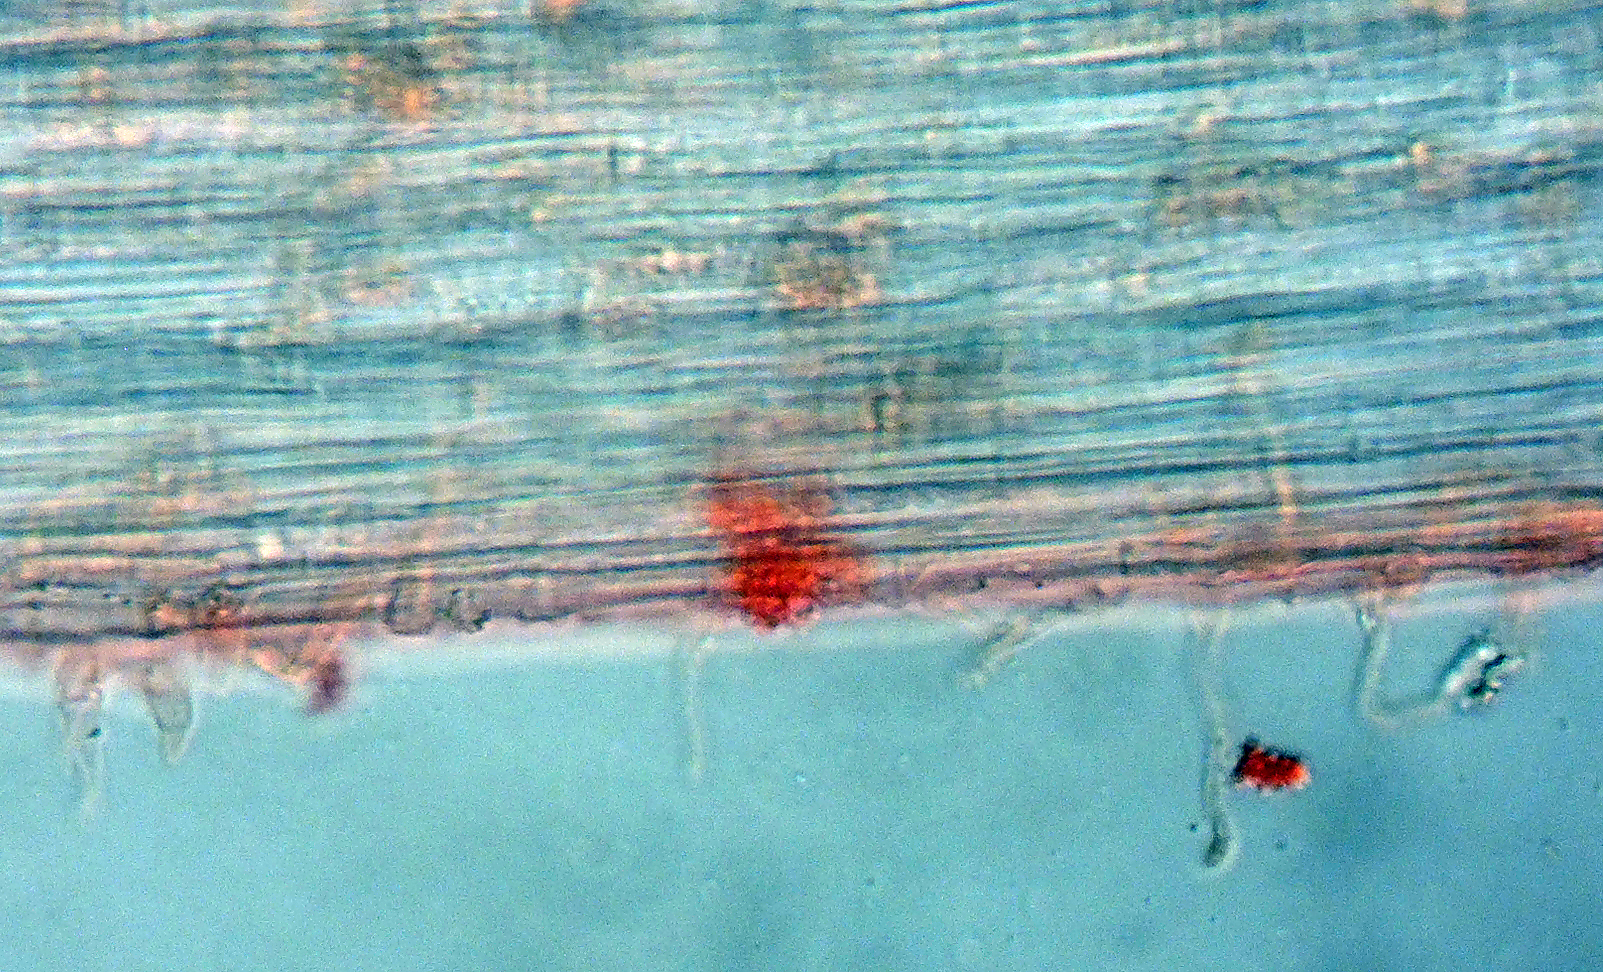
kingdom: Fungi
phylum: Basidiomycota
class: Agaricomycetes
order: Agaricales
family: Mycenaceae
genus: Hemimycena
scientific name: Hemimycena mauretanica
